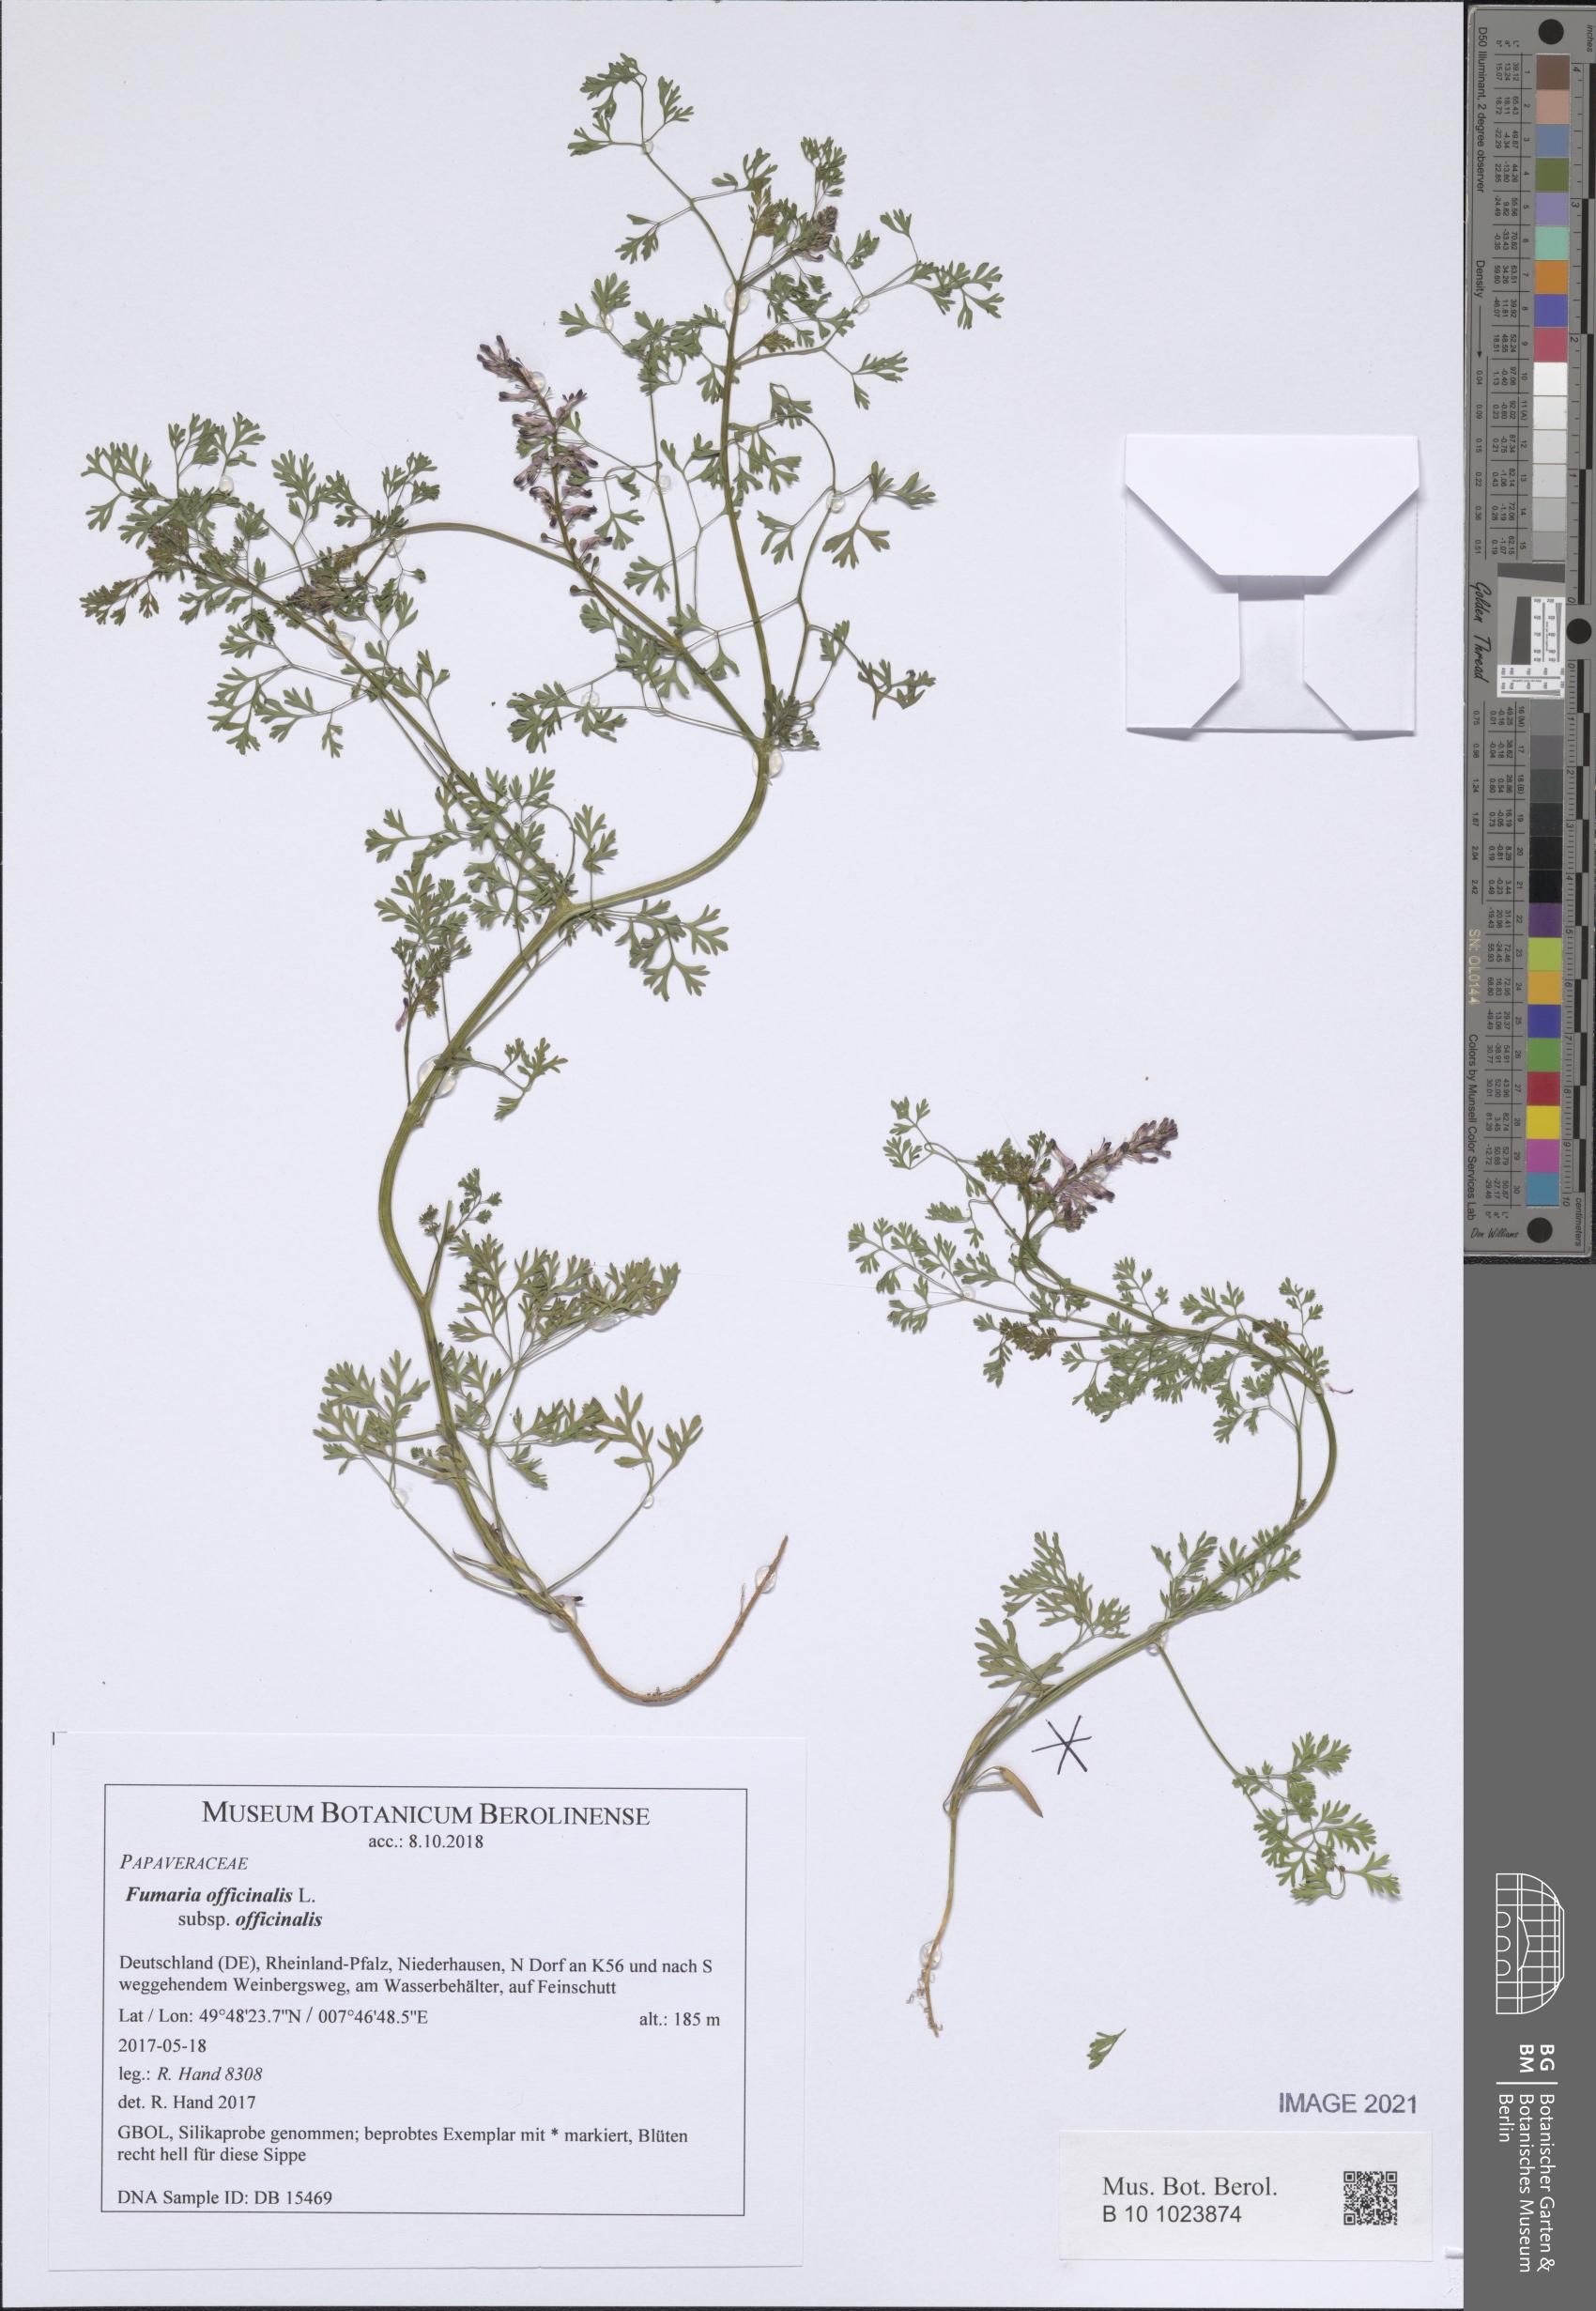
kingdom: Plantae
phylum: Tracheophyta
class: Magnoliopsida
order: Ranunculales
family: Papaveraceae
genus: Fumaria
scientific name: Fumaria officinalis
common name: Common fumitory
